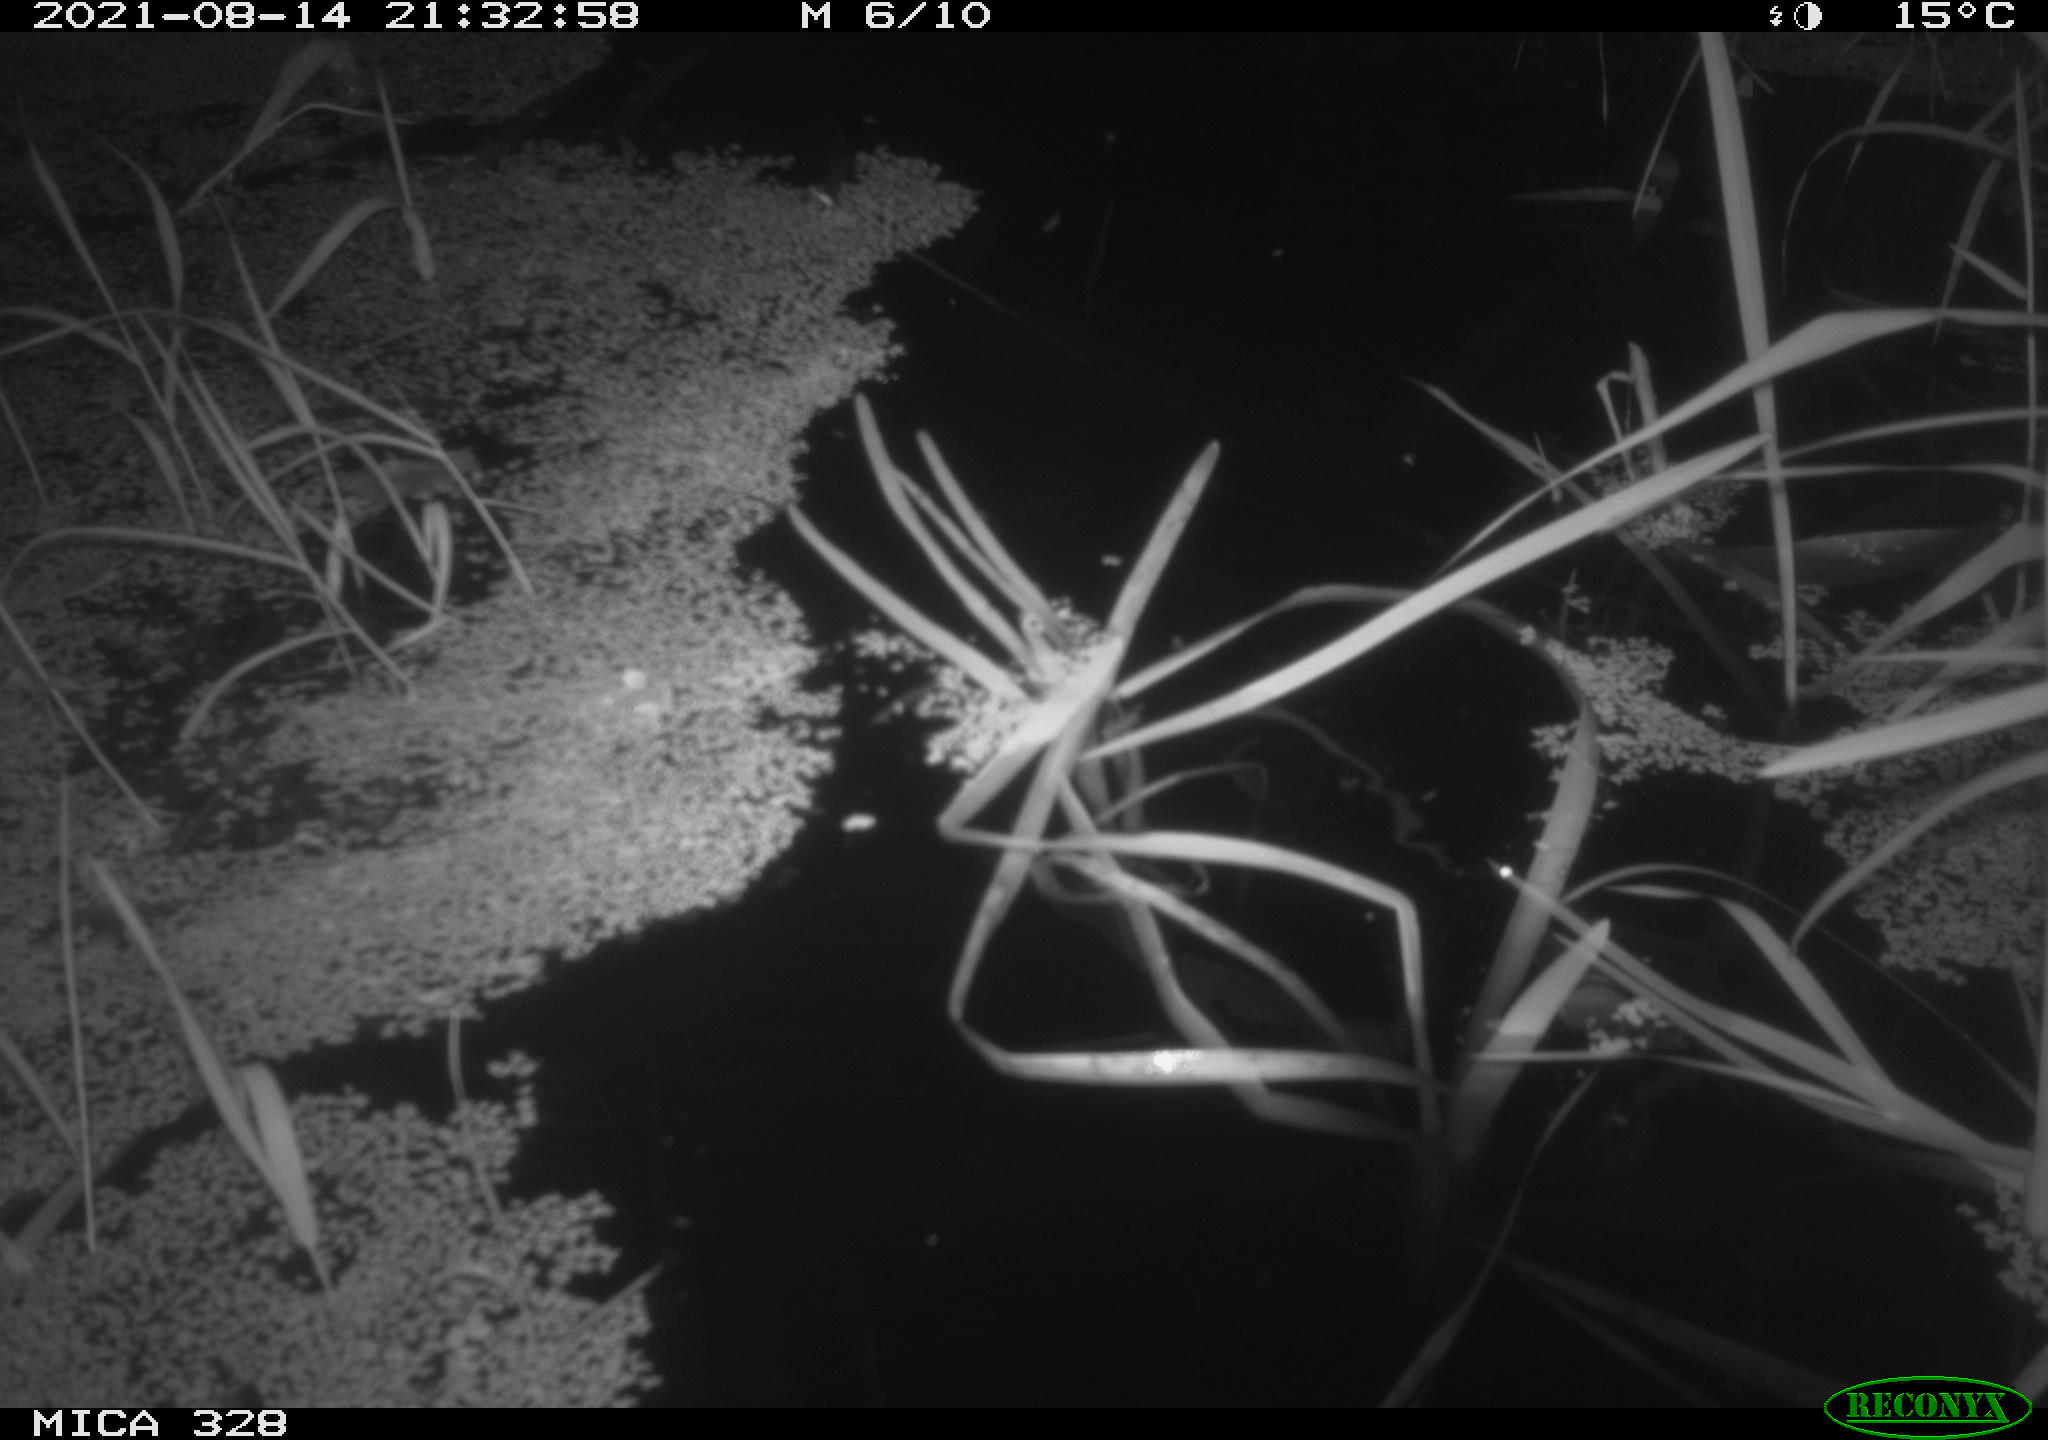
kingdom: Animalia
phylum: Chordata
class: Mammalia
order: Rodentia
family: Cricetidae
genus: Ondatra
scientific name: Ondatra zibethicus
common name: Muskrat
